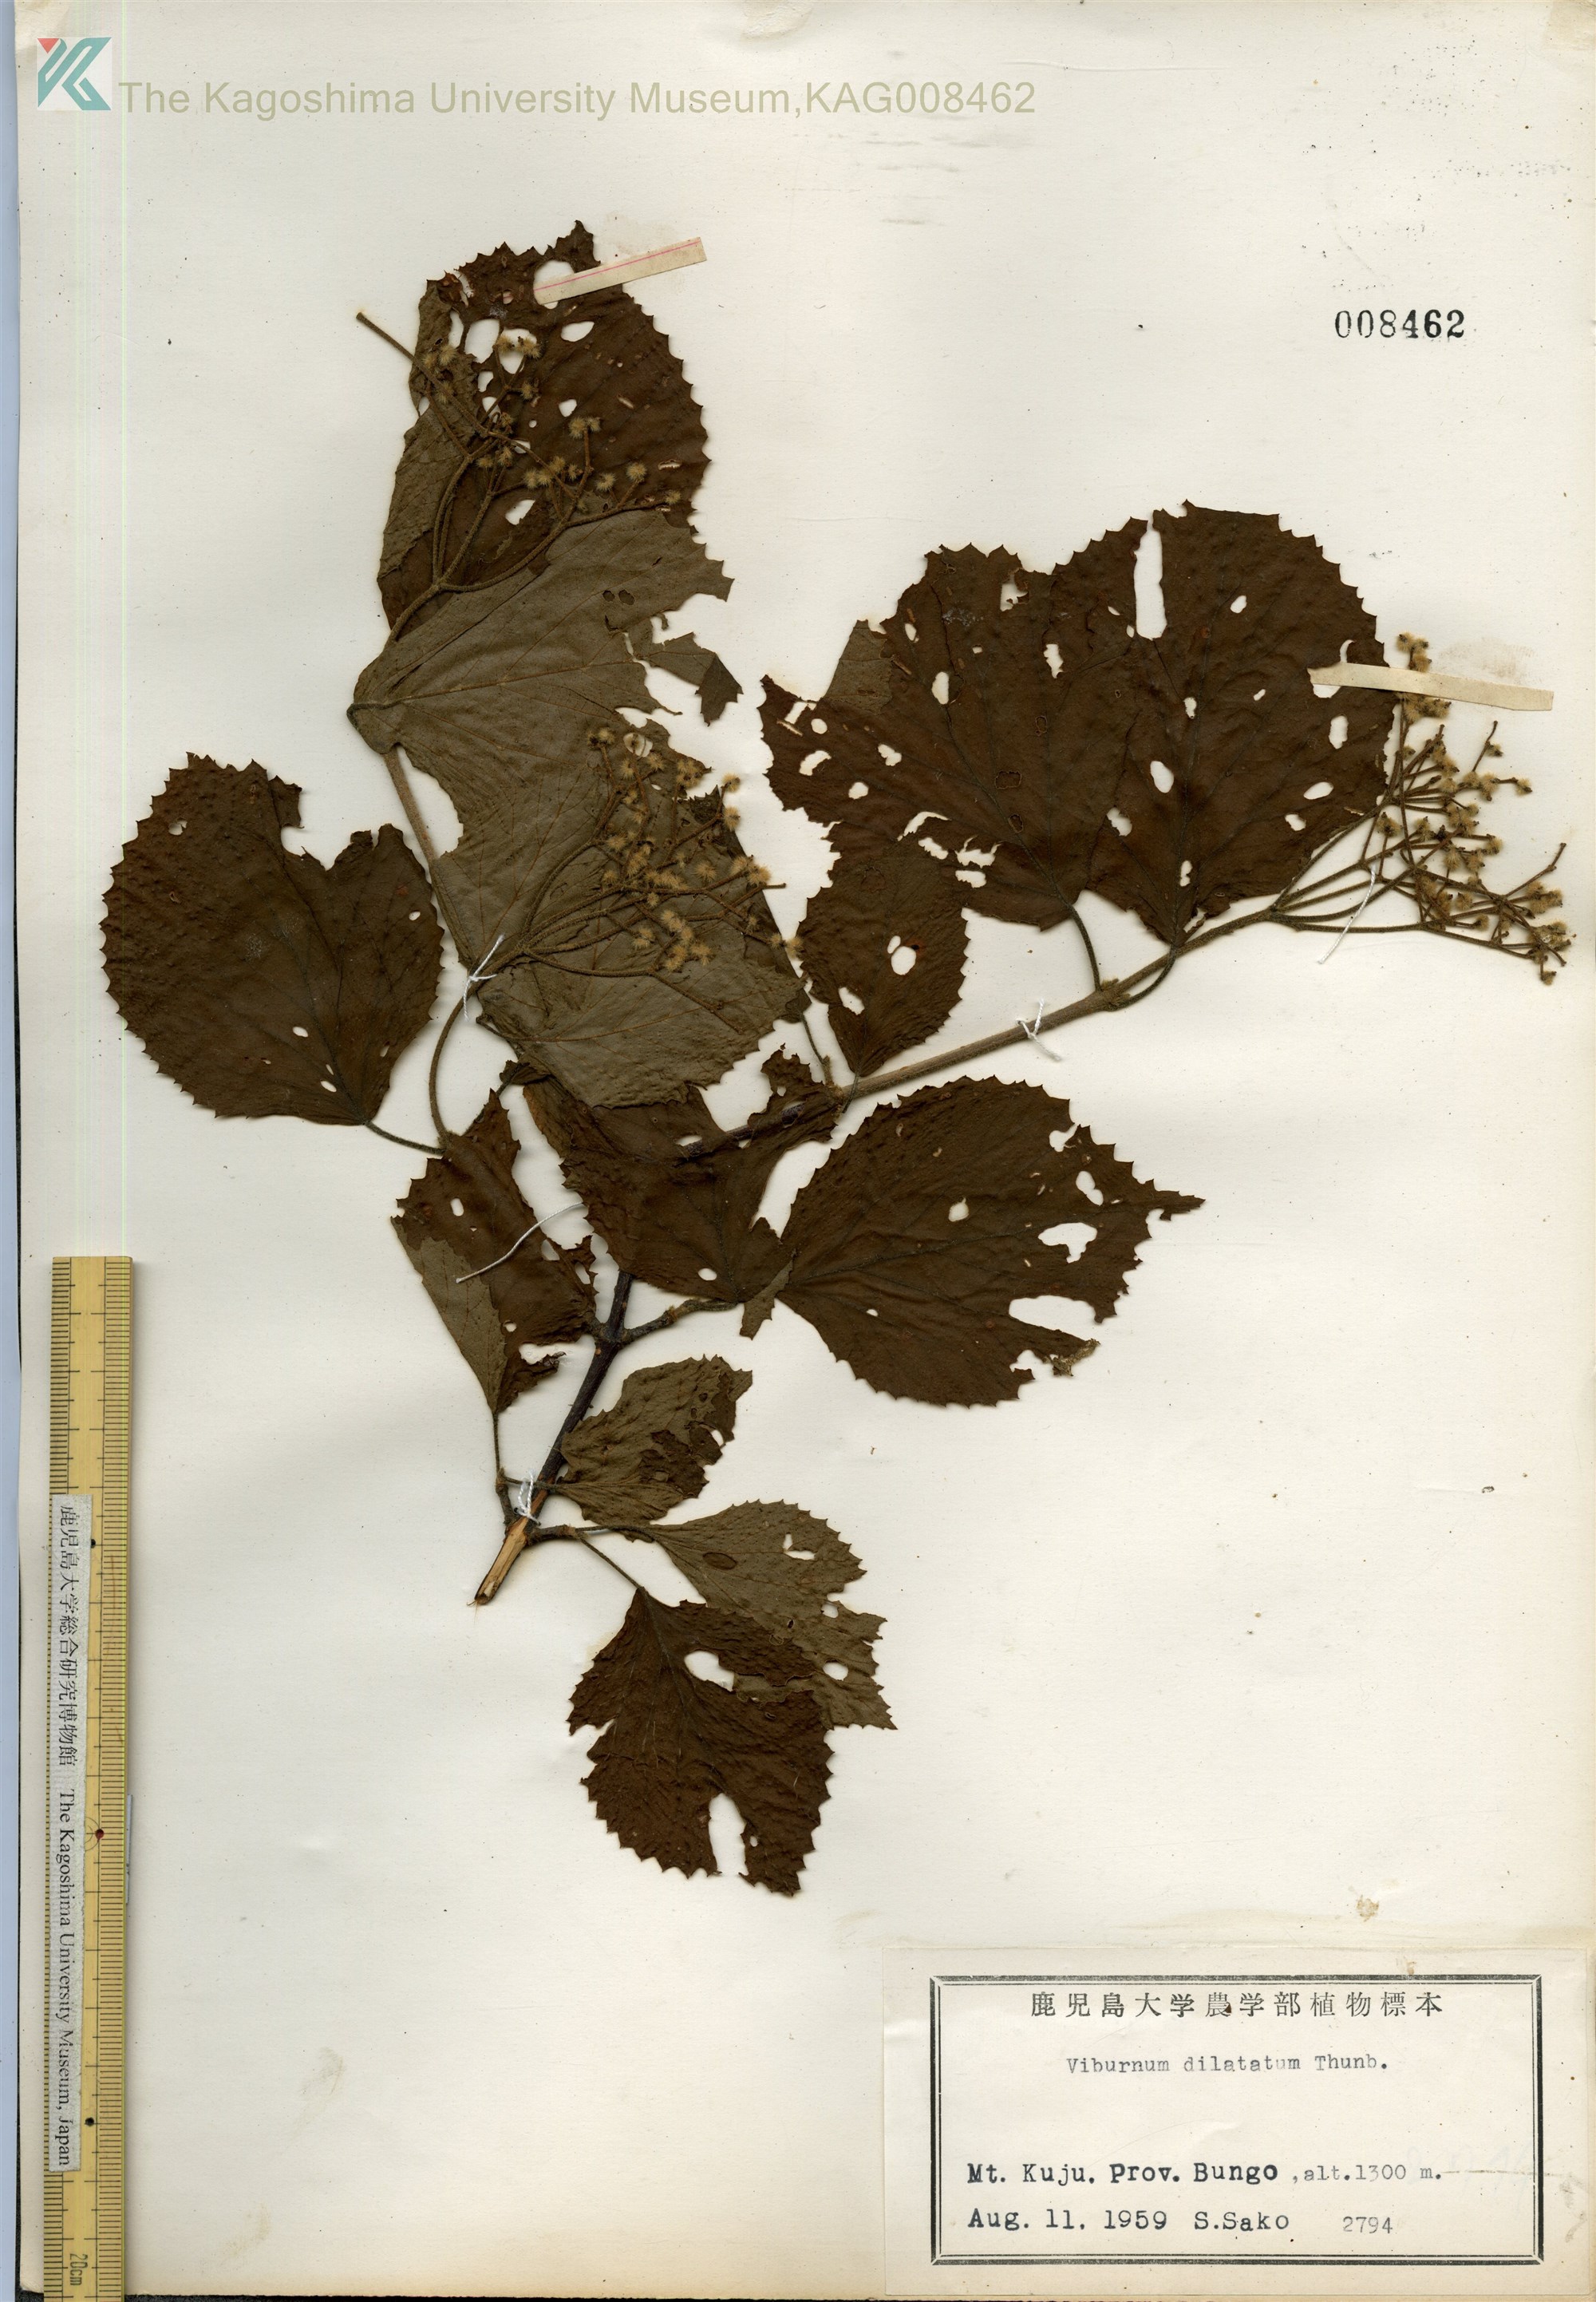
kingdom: Plantae
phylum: Tracheophyta
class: Magnoliopsida
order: Dipsacales
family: Viburnaceae
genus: Viburnum
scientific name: Viburnum dilatatum
